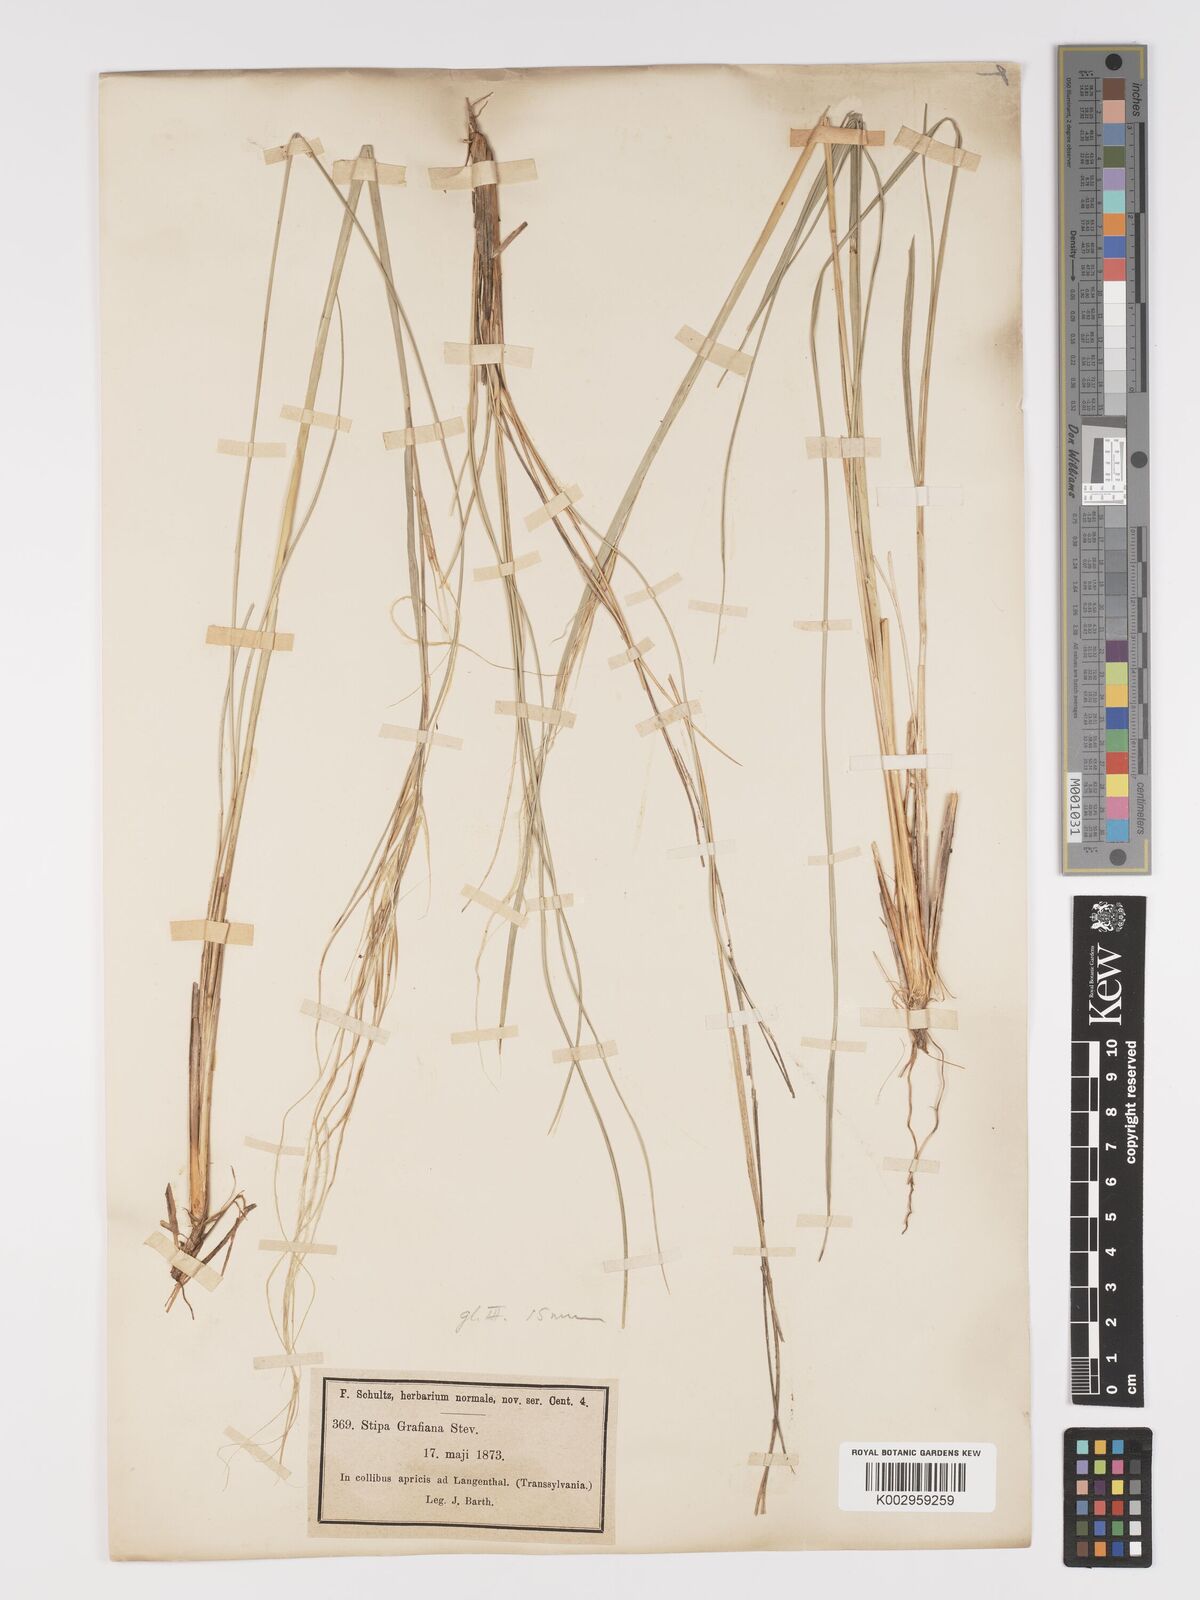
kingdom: Plantae
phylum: Tracheophyta
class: Liliopsida
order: Poales
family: Poaceae
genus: Stipa
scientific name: Stipa pulcherrima
